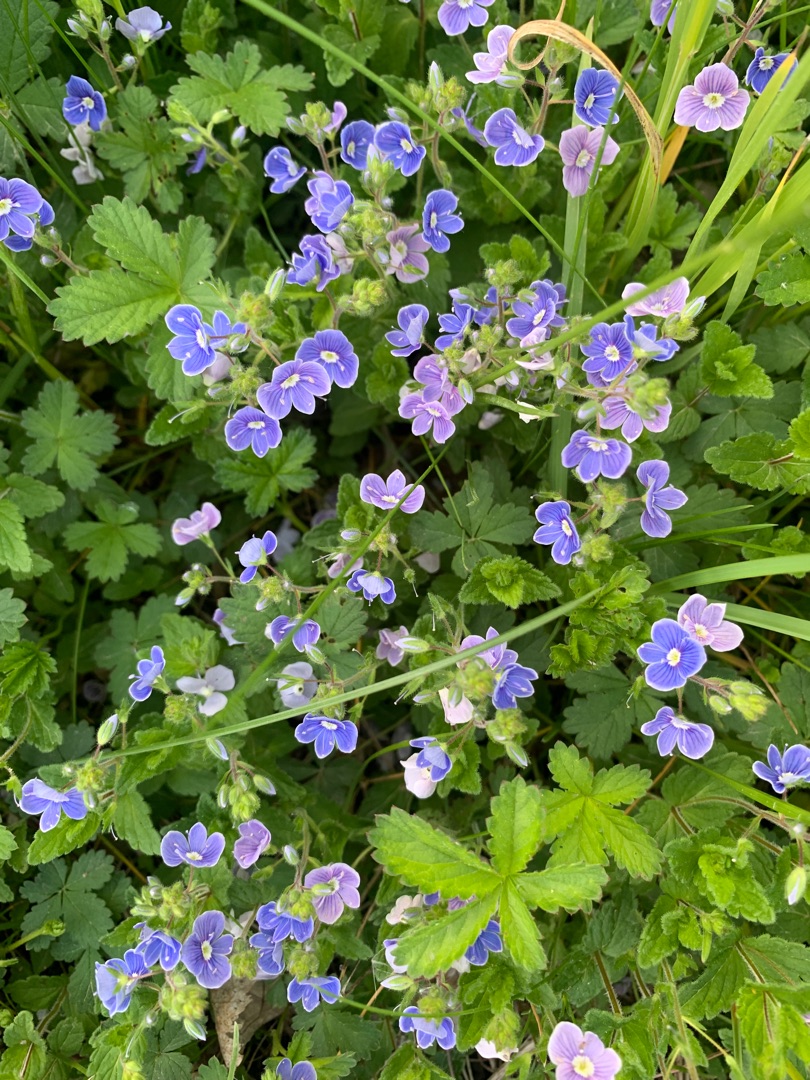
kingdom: Plantae
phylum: Tracheophyta
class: Magnoliopsida
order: Lamiales
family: Plantaginaceae
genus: Veronica
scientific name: Veronica chamaedrys
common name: Tveskægget ærenpris
